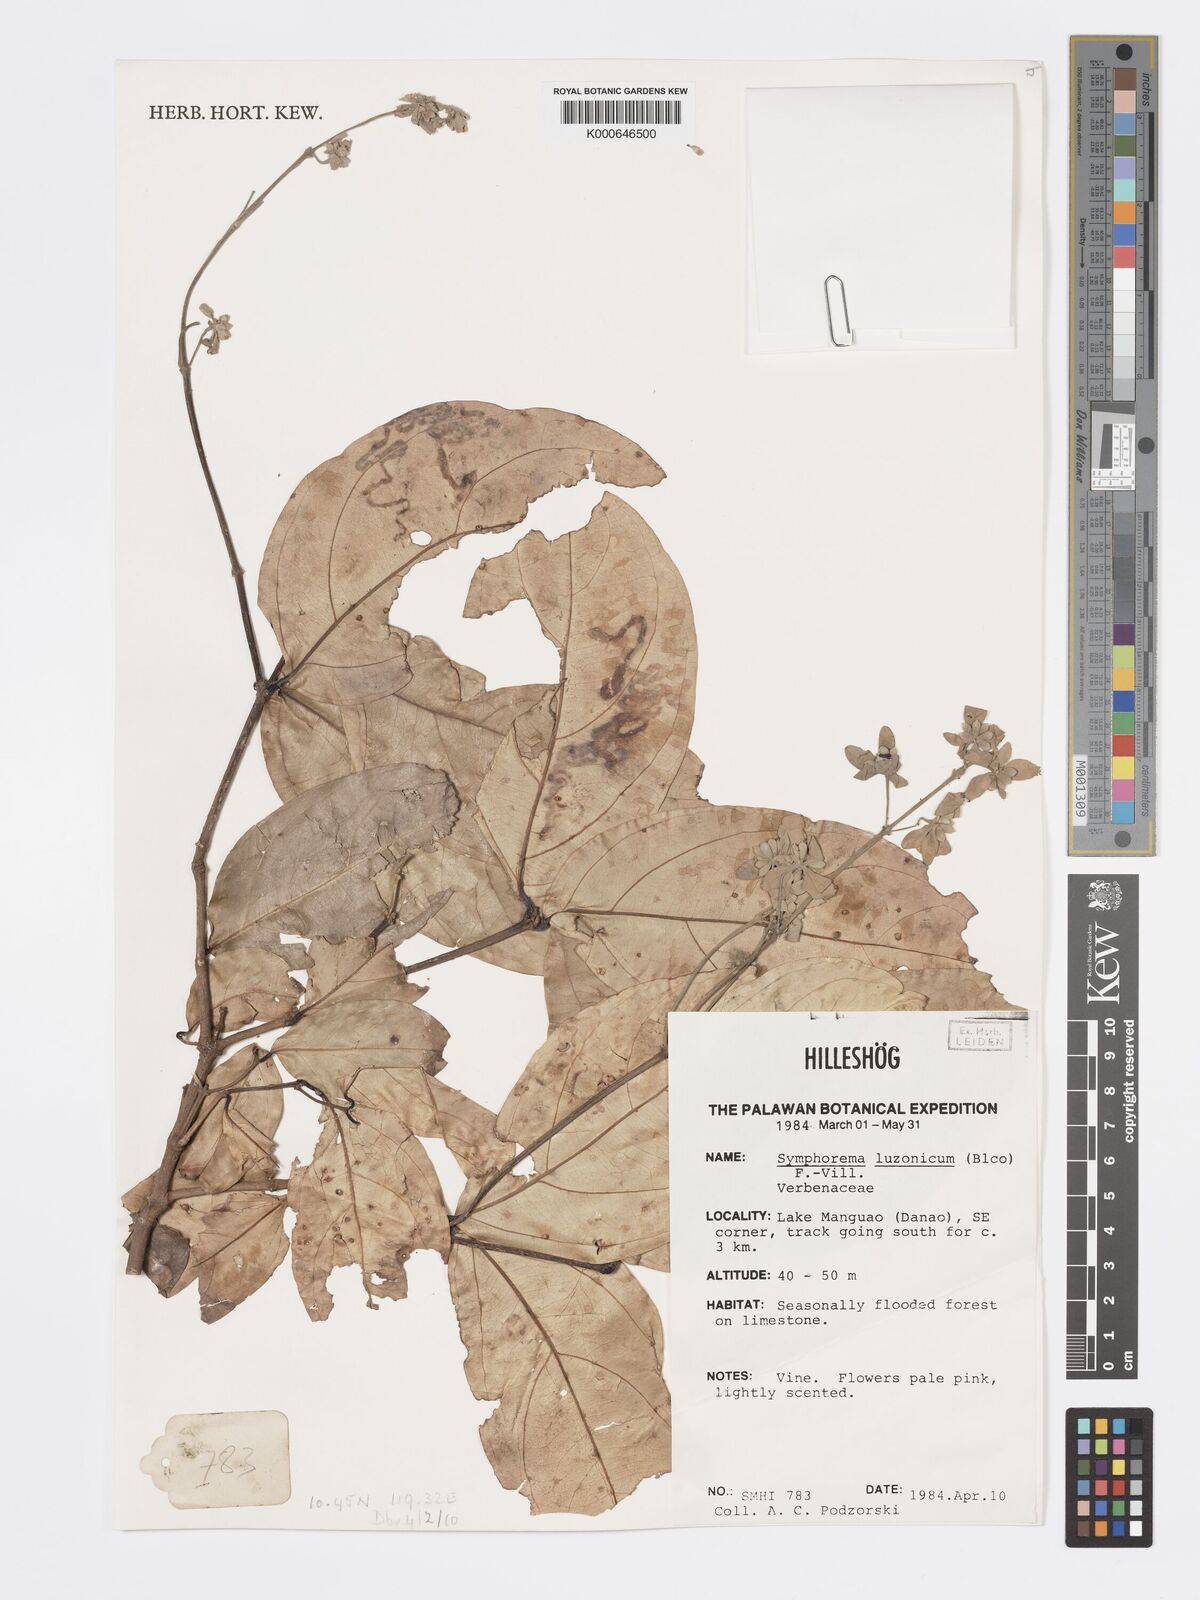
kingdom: Plantae
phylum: Tracheophyta
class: Magnoliopsida
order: Lamiales
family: Lamiaceae
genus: Symphorema
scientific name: Symphorema luzonicum
